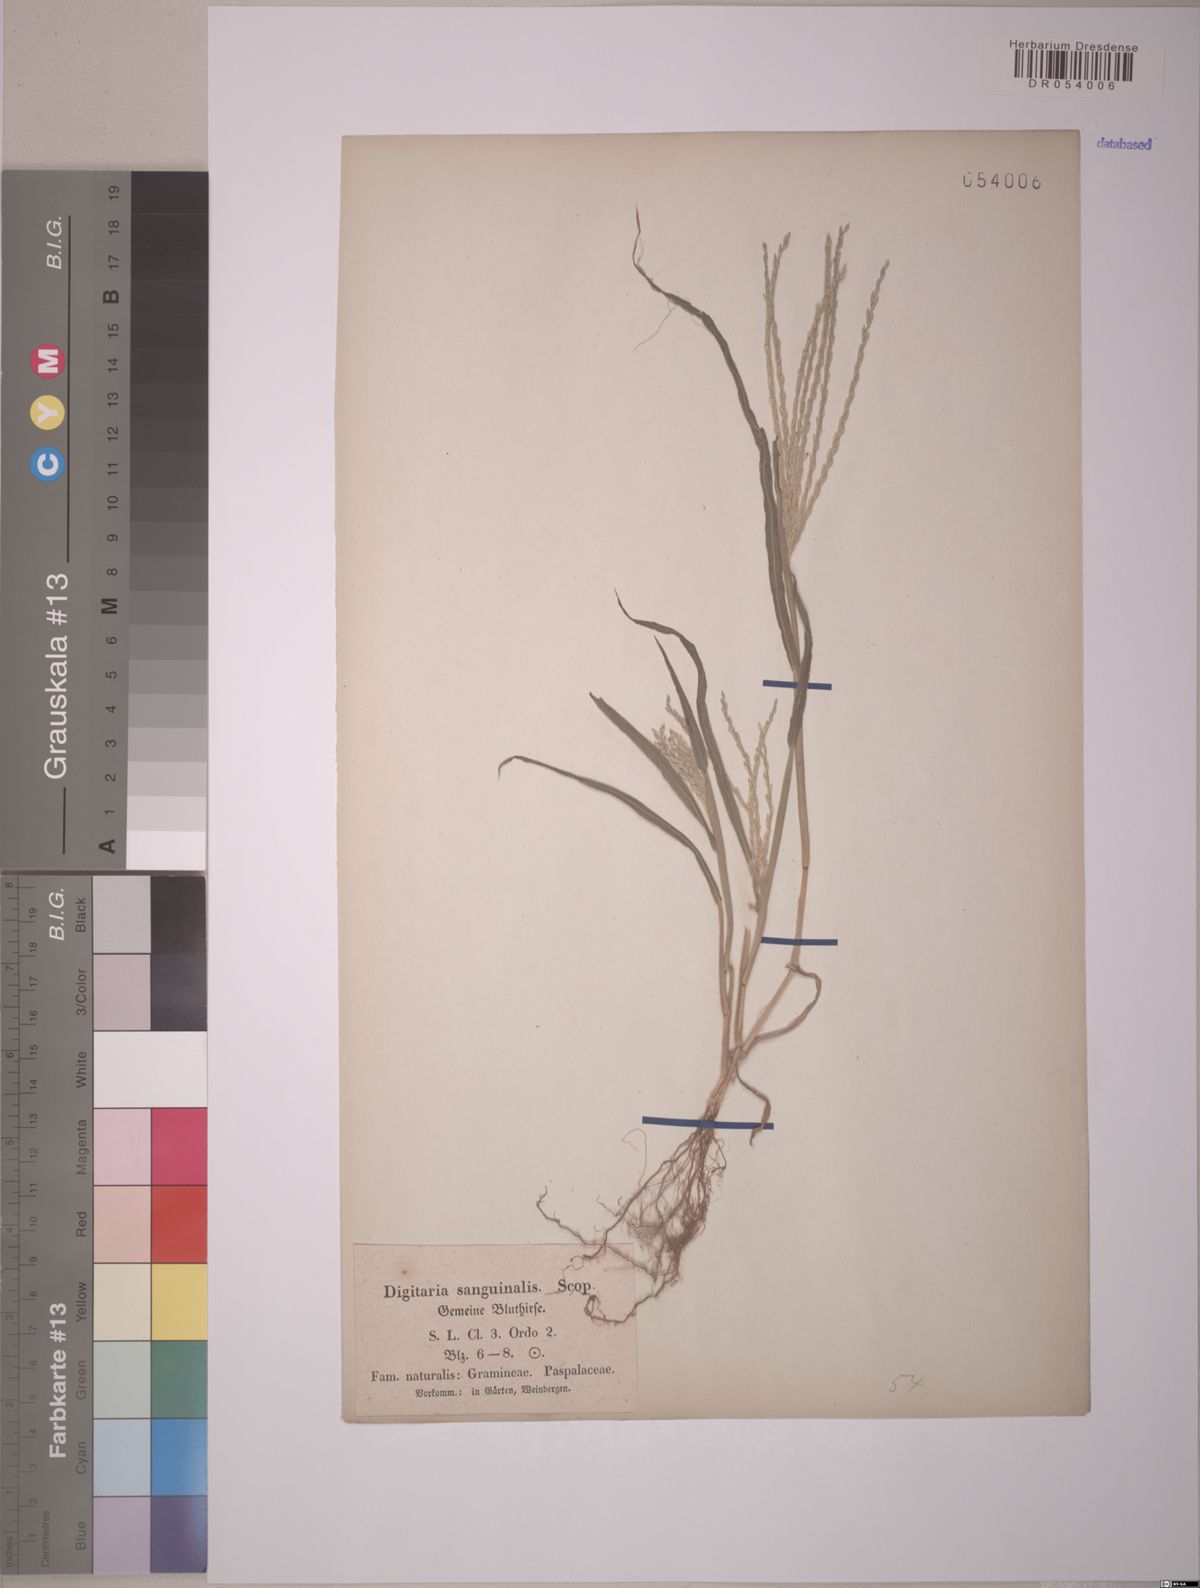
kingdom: Plantae
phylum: Tracheophyta
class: Liliopsida
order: Poales
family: Poaceae
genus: Digitaria
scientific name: Digitaria sanguinalis
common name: Hairy crabgrass
